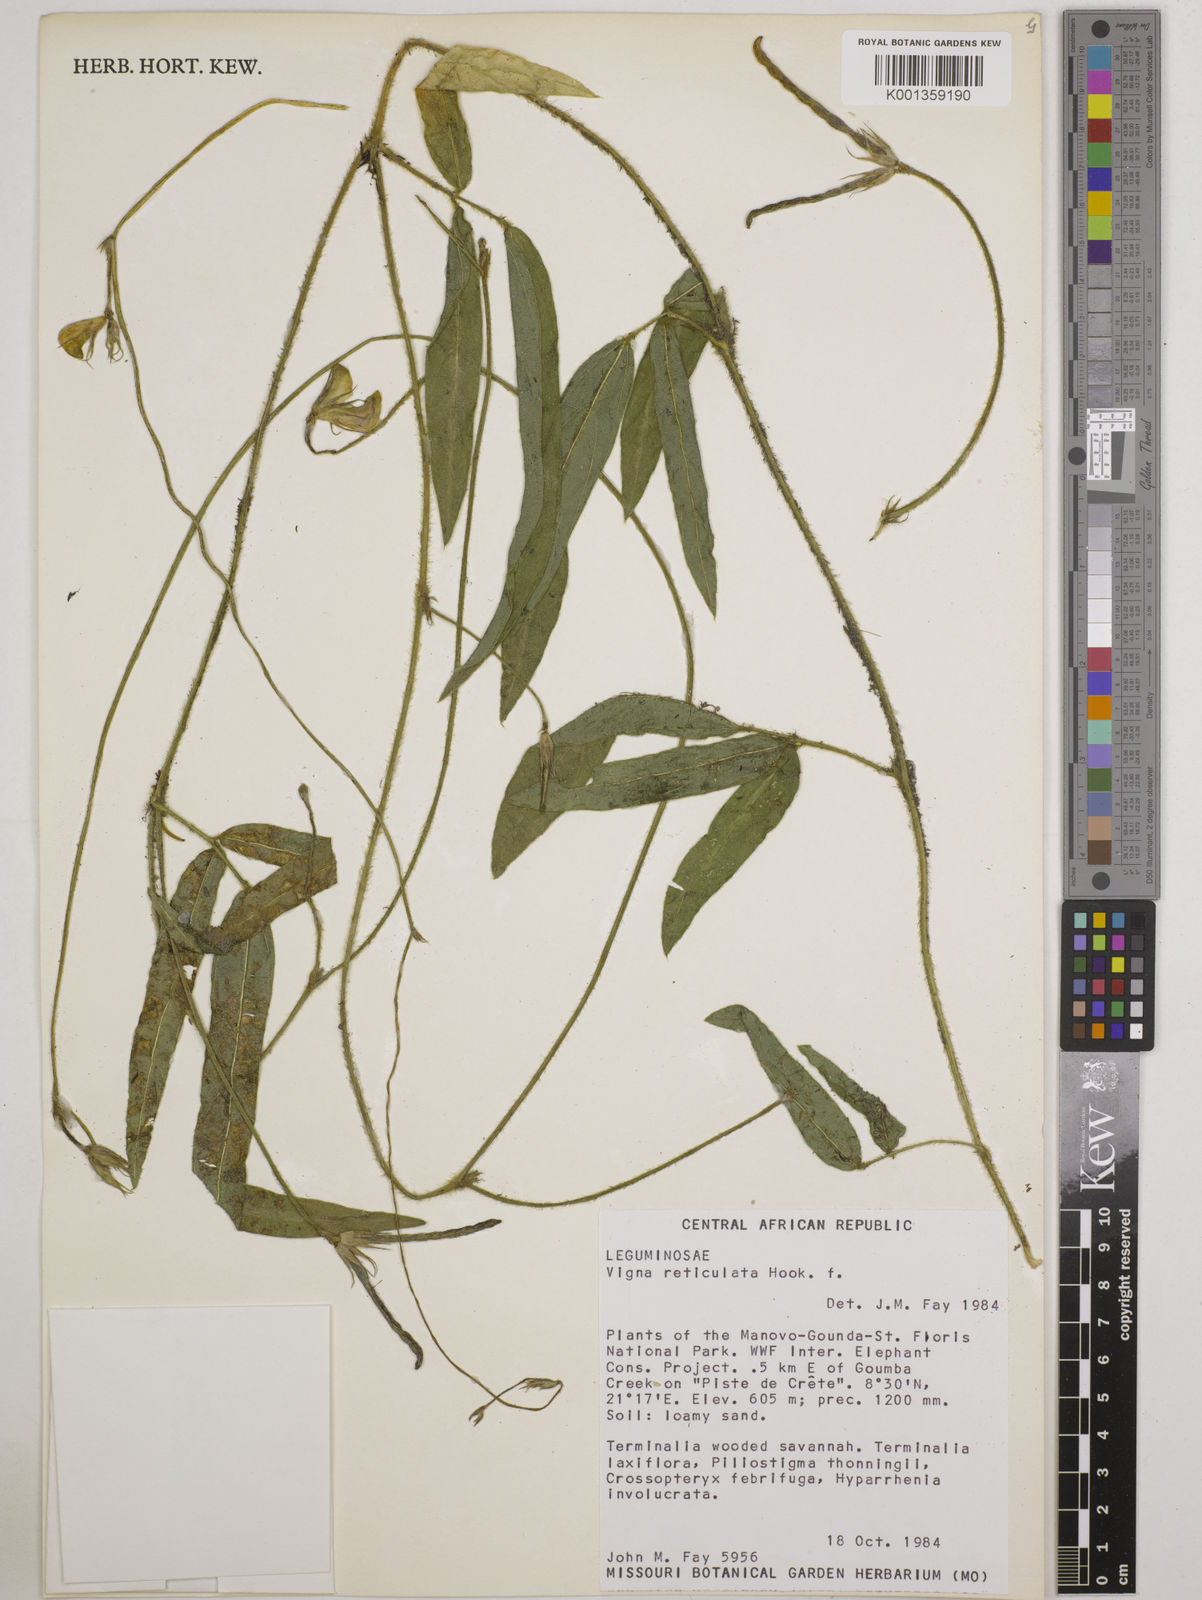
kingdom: Plantae
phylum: Tracheophyta
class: Magnoliopsida
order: Fabales
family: Fabaceae
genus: Vigna
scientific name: Vigna reticulata
